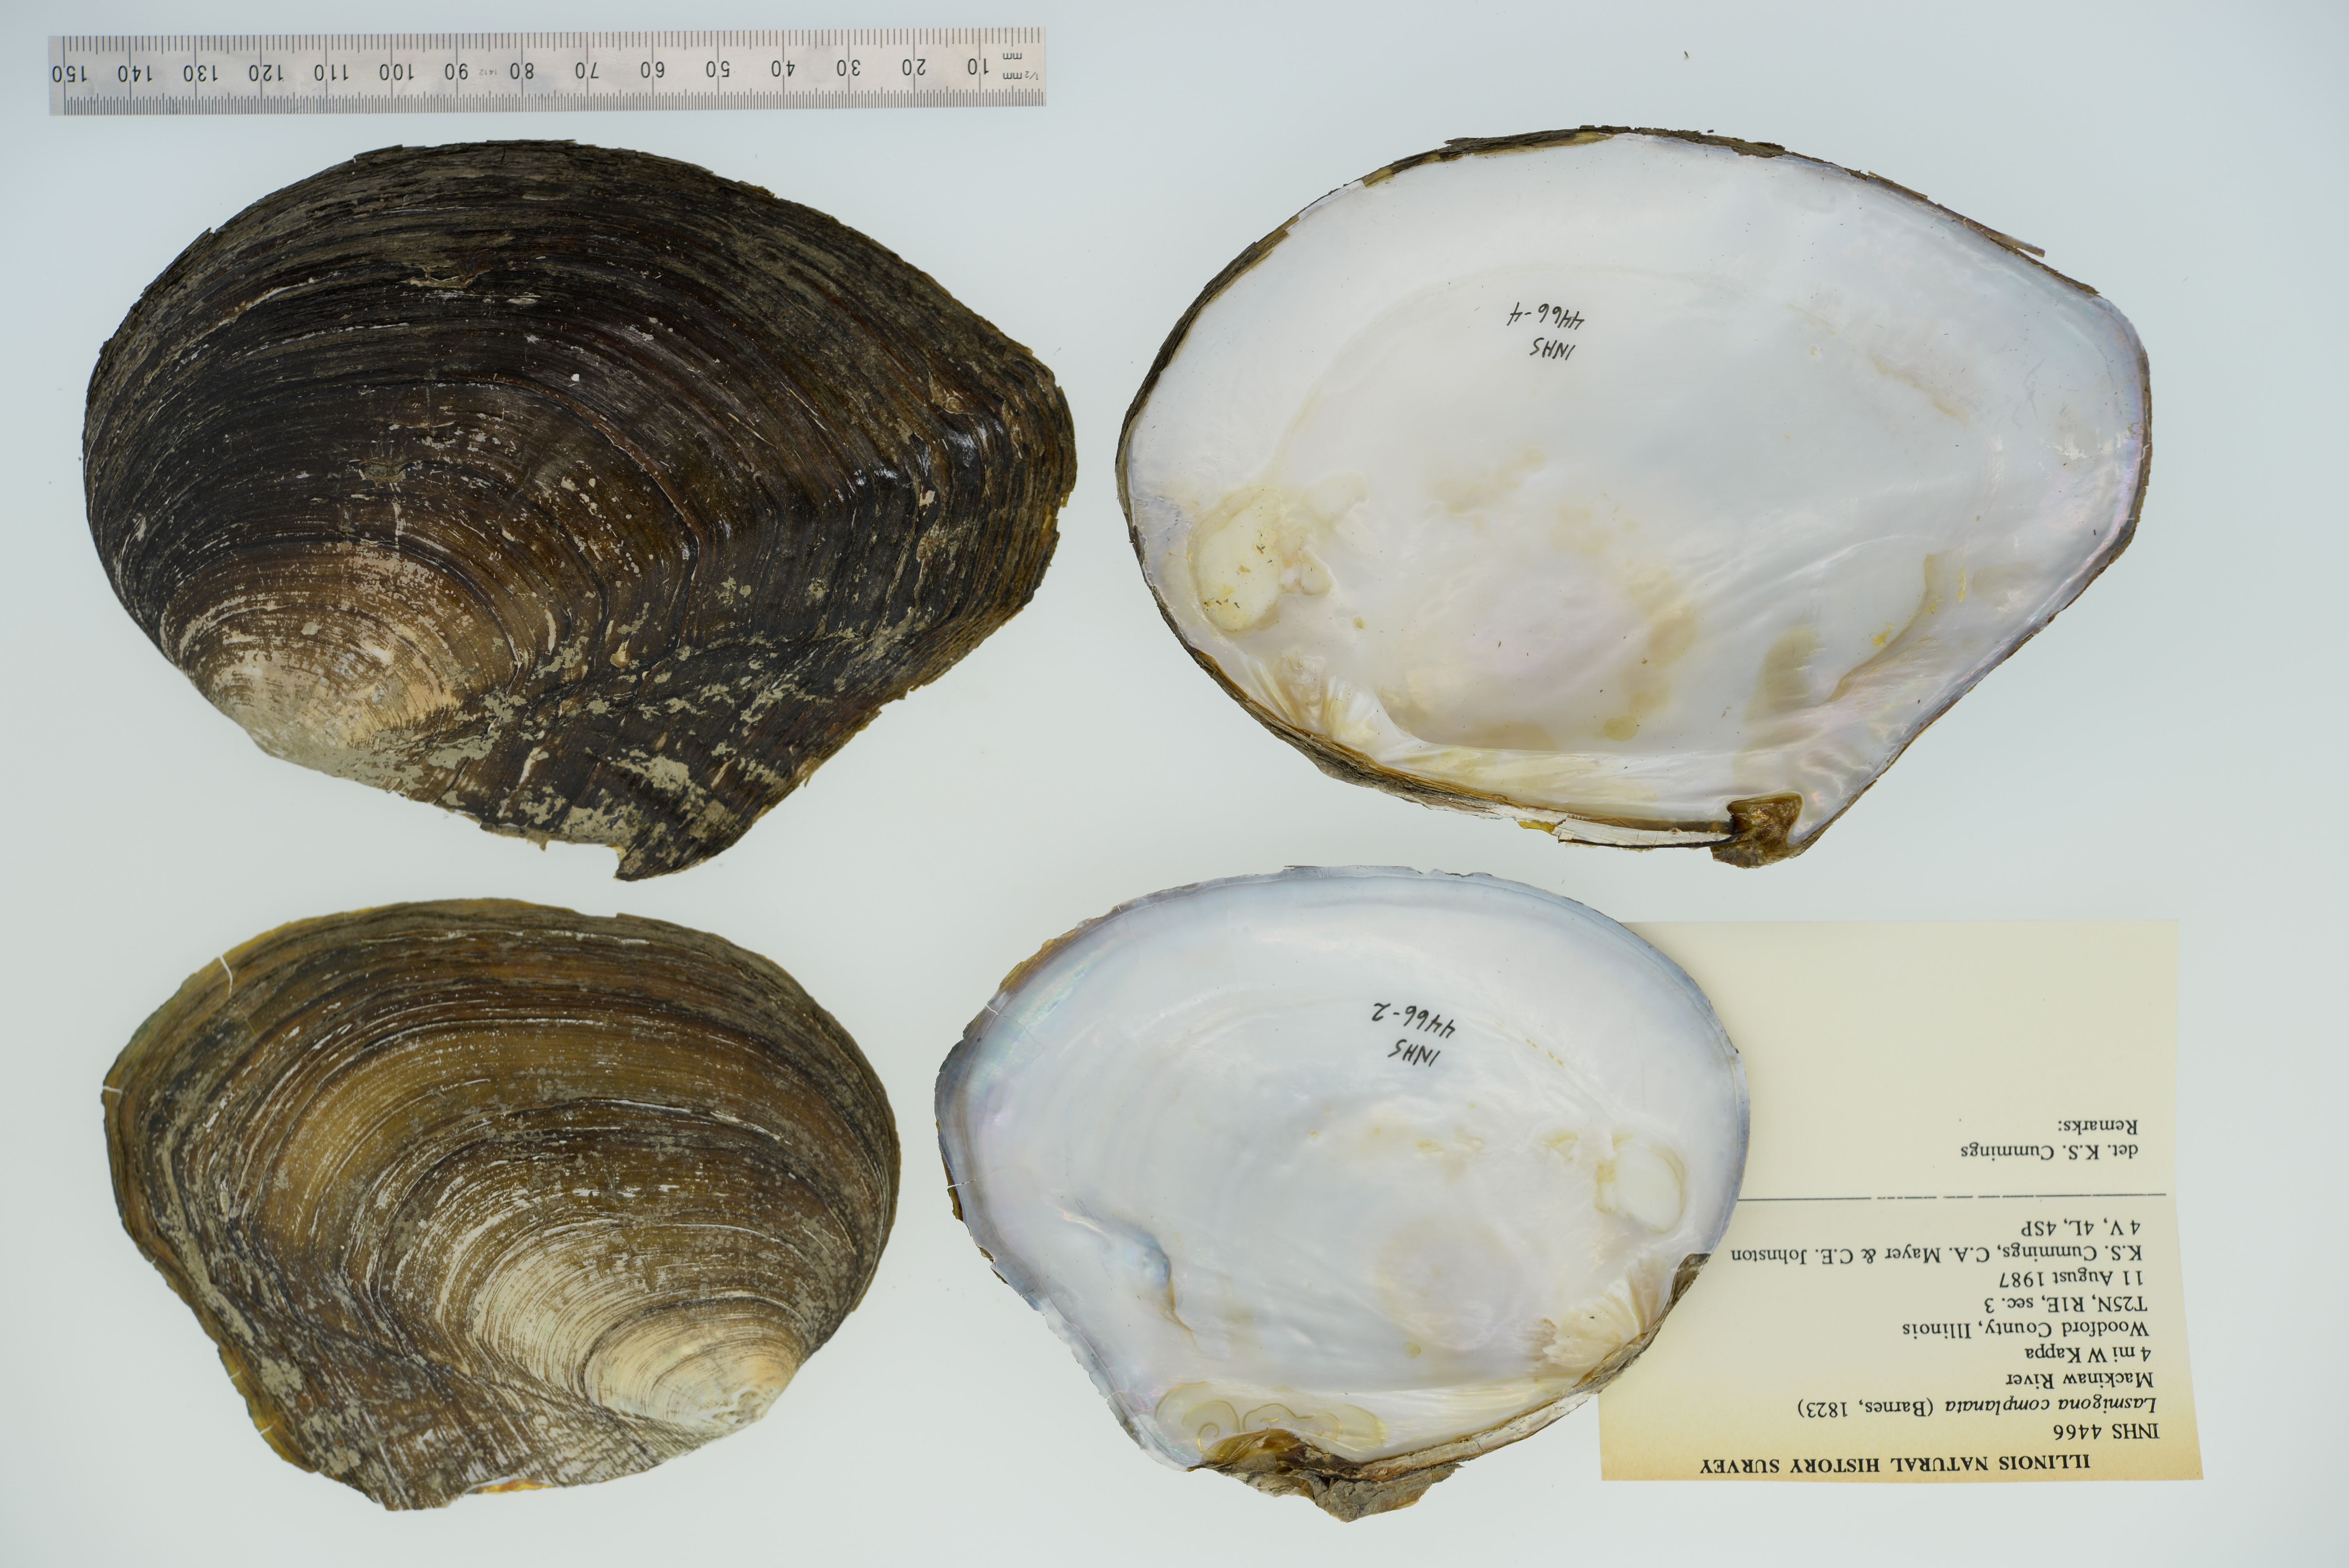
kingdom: Animalia
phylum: Mollusca
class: Bivalvia
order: Unionida
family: Unionidae
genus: Lasmigona
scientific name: Lasmigona complanata
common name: White heelsplitter
